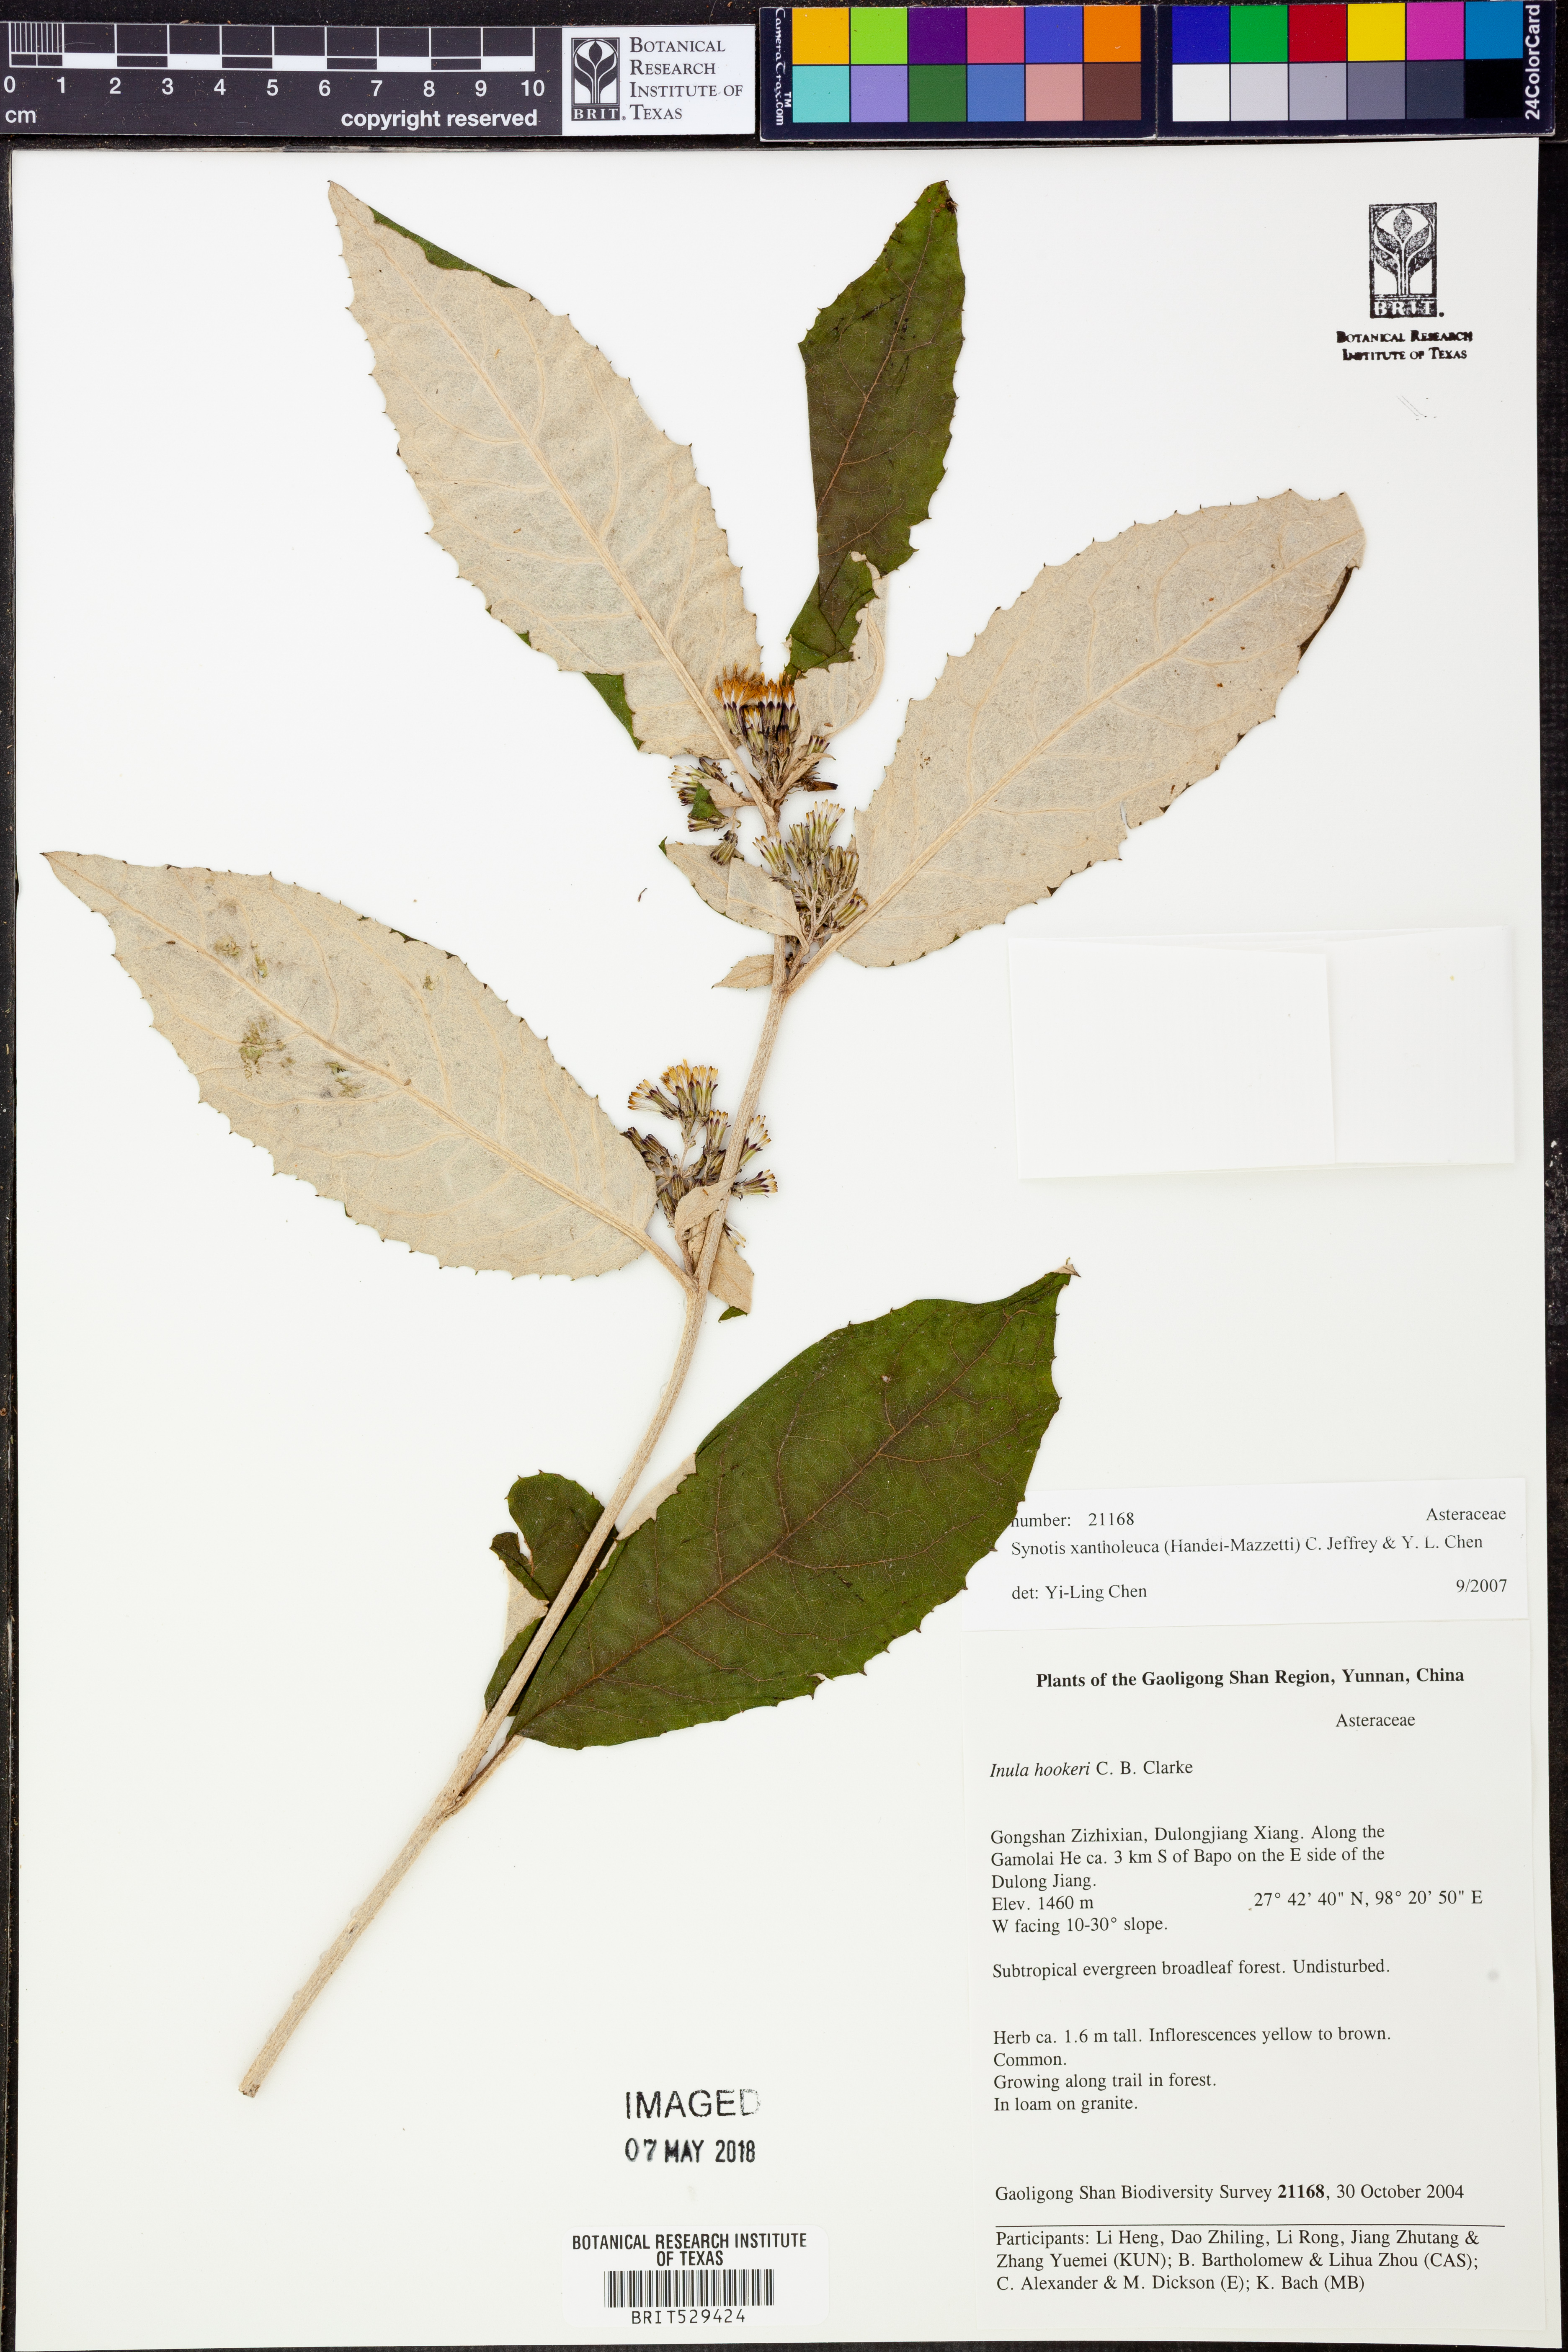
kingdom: Plantae
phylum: Tracheophyta
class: Magnoliopsida
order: Asterales
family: Asteraceae
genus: Synotis
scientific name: Synotis xantholeuca
